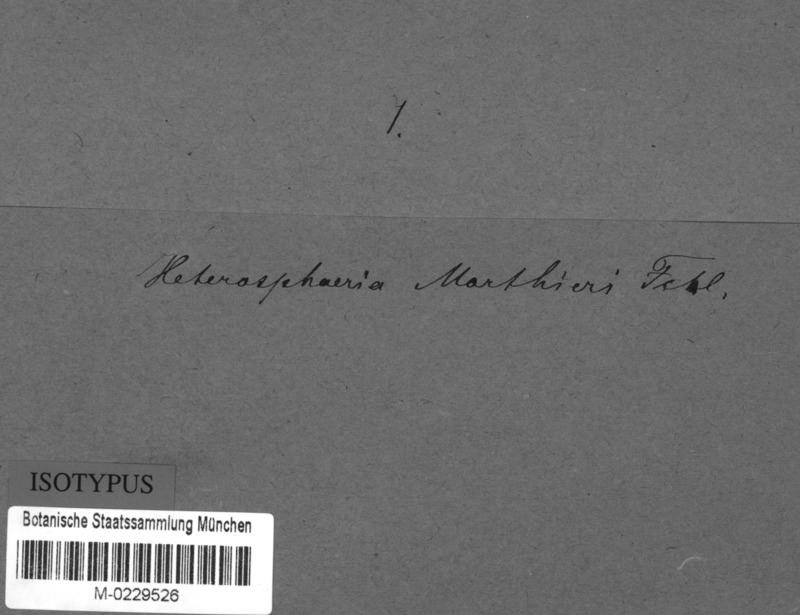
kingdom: Fungi
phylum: Ascomycota
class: Leotiomycetes
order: Helotiales
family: Heterosphaeriaceae
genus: Heterosphaeria
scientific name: Heterosphaeria morthieri
